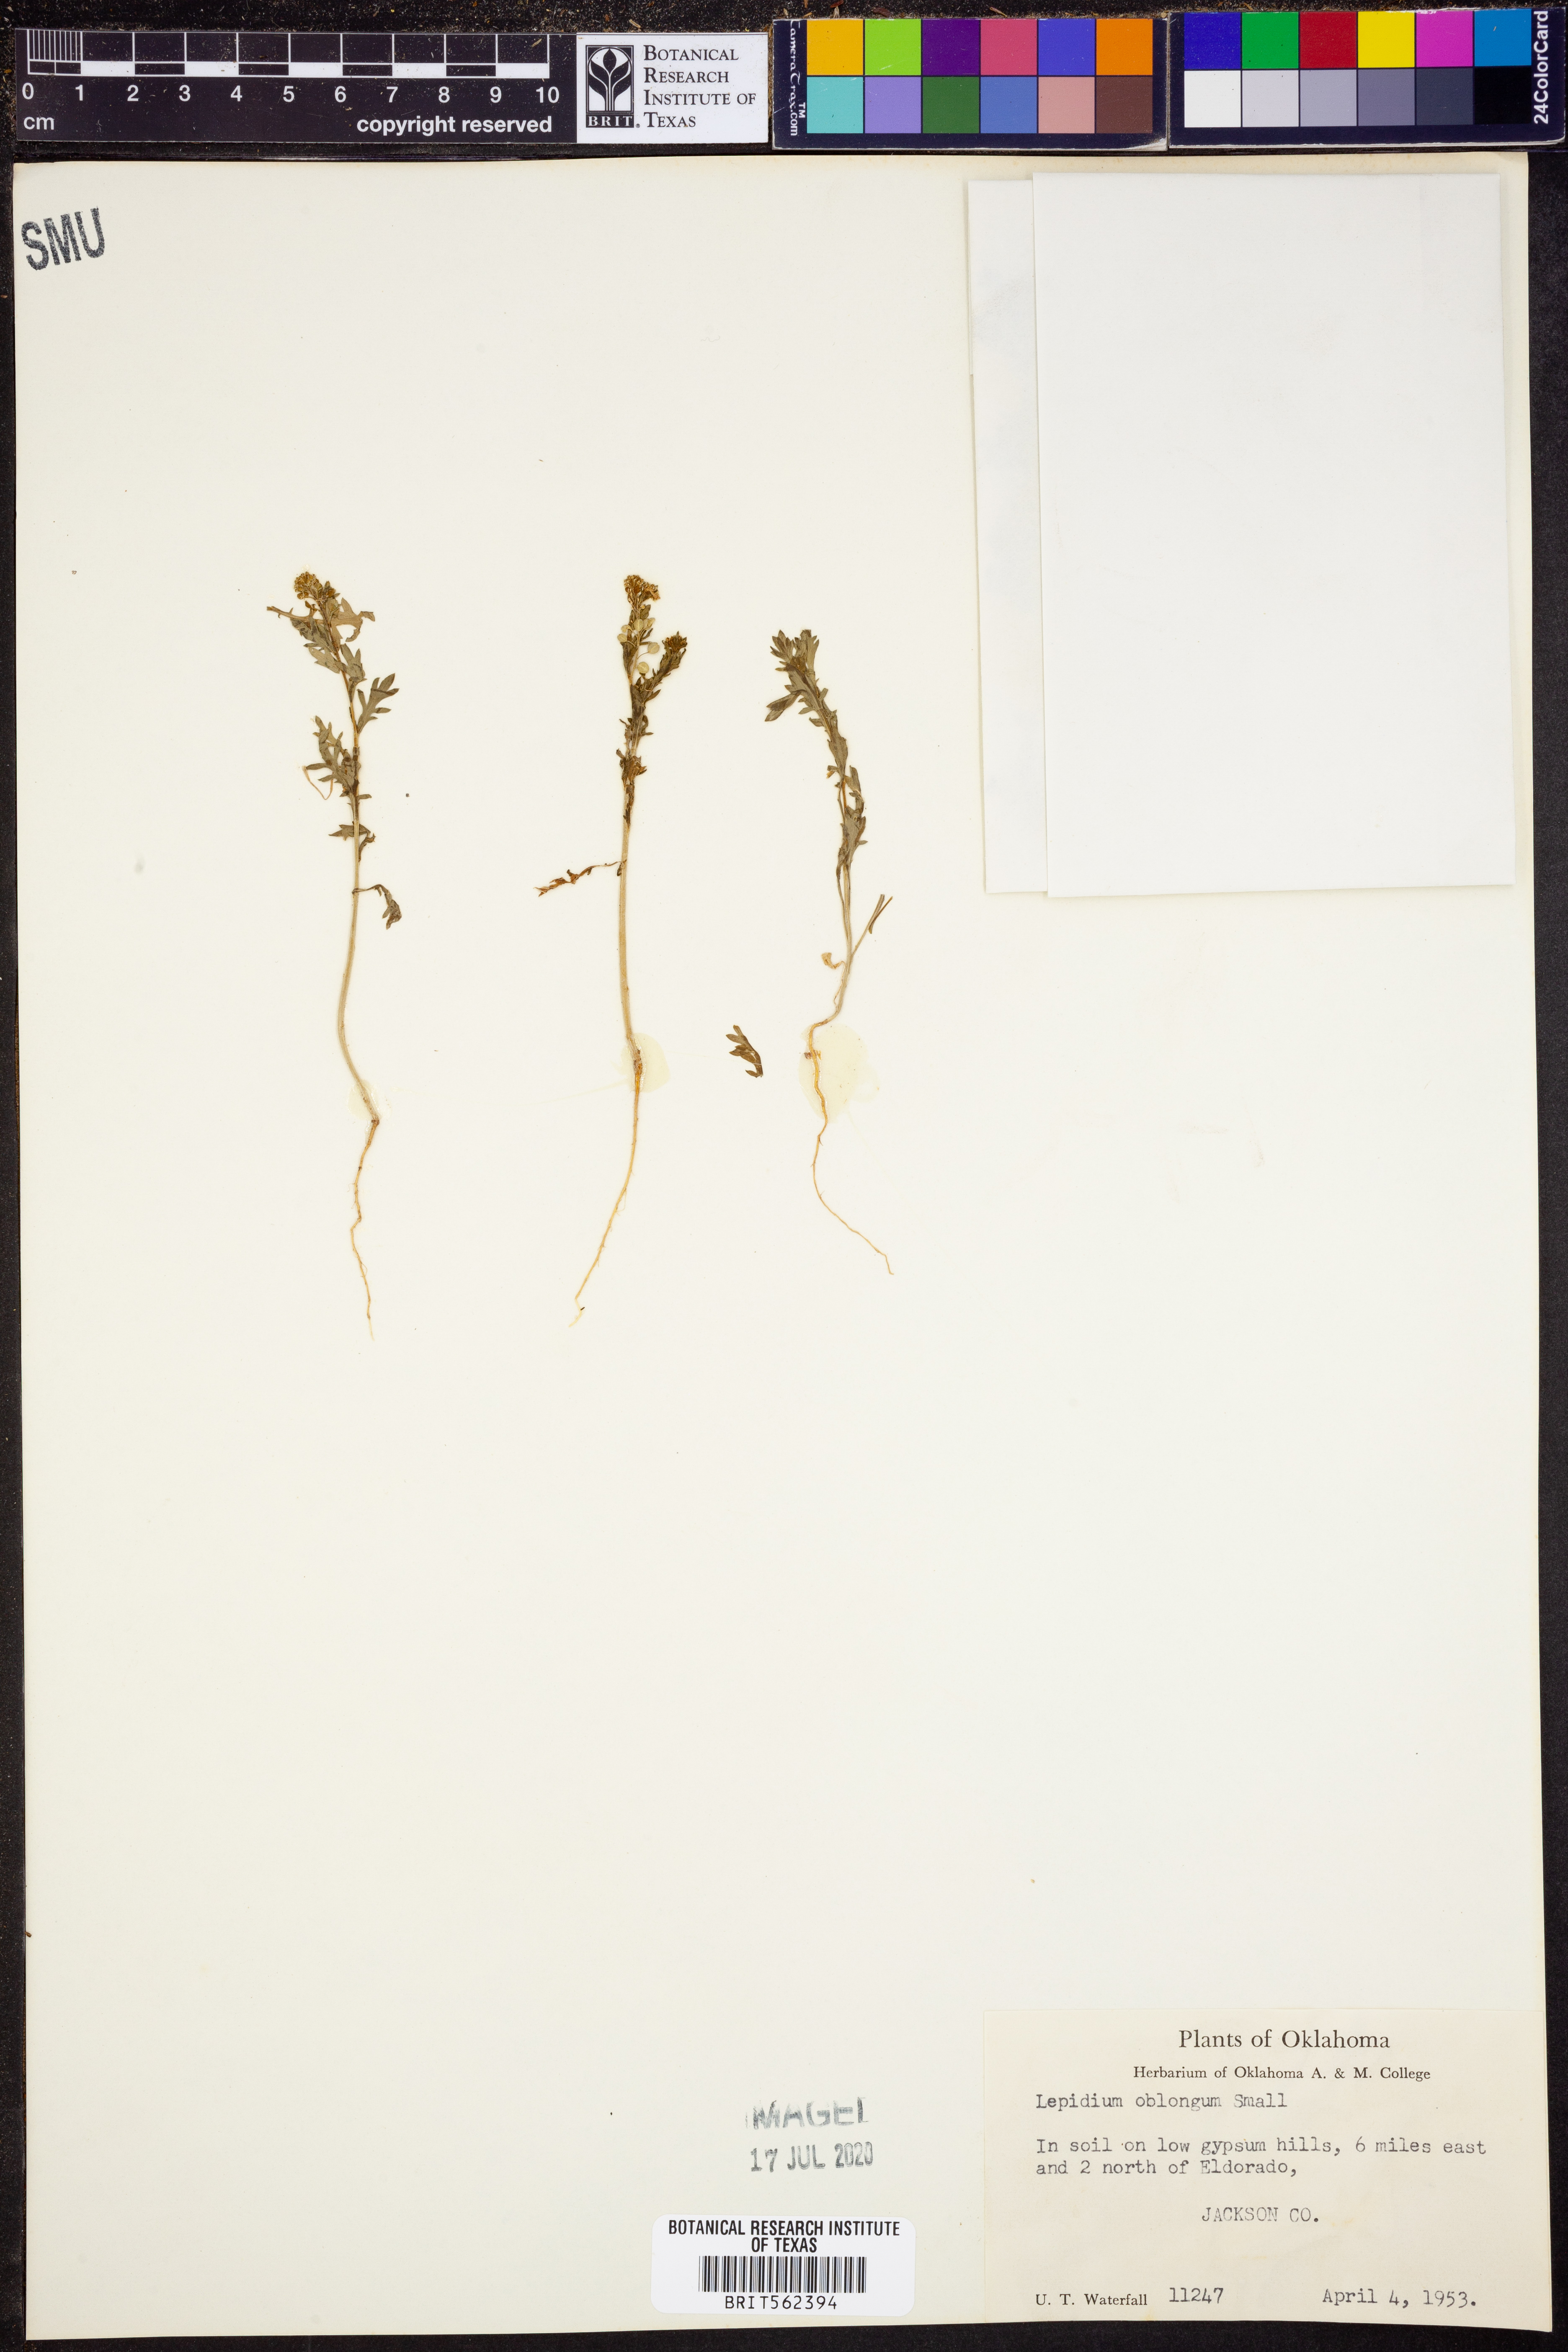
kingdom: Plantae
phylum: Tracheophyta
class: Magnoliopsida
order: Brassicales
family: Brassicaceae
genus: Lepidium
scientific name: Lepidium oblongum
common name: Veiny pepperweed
